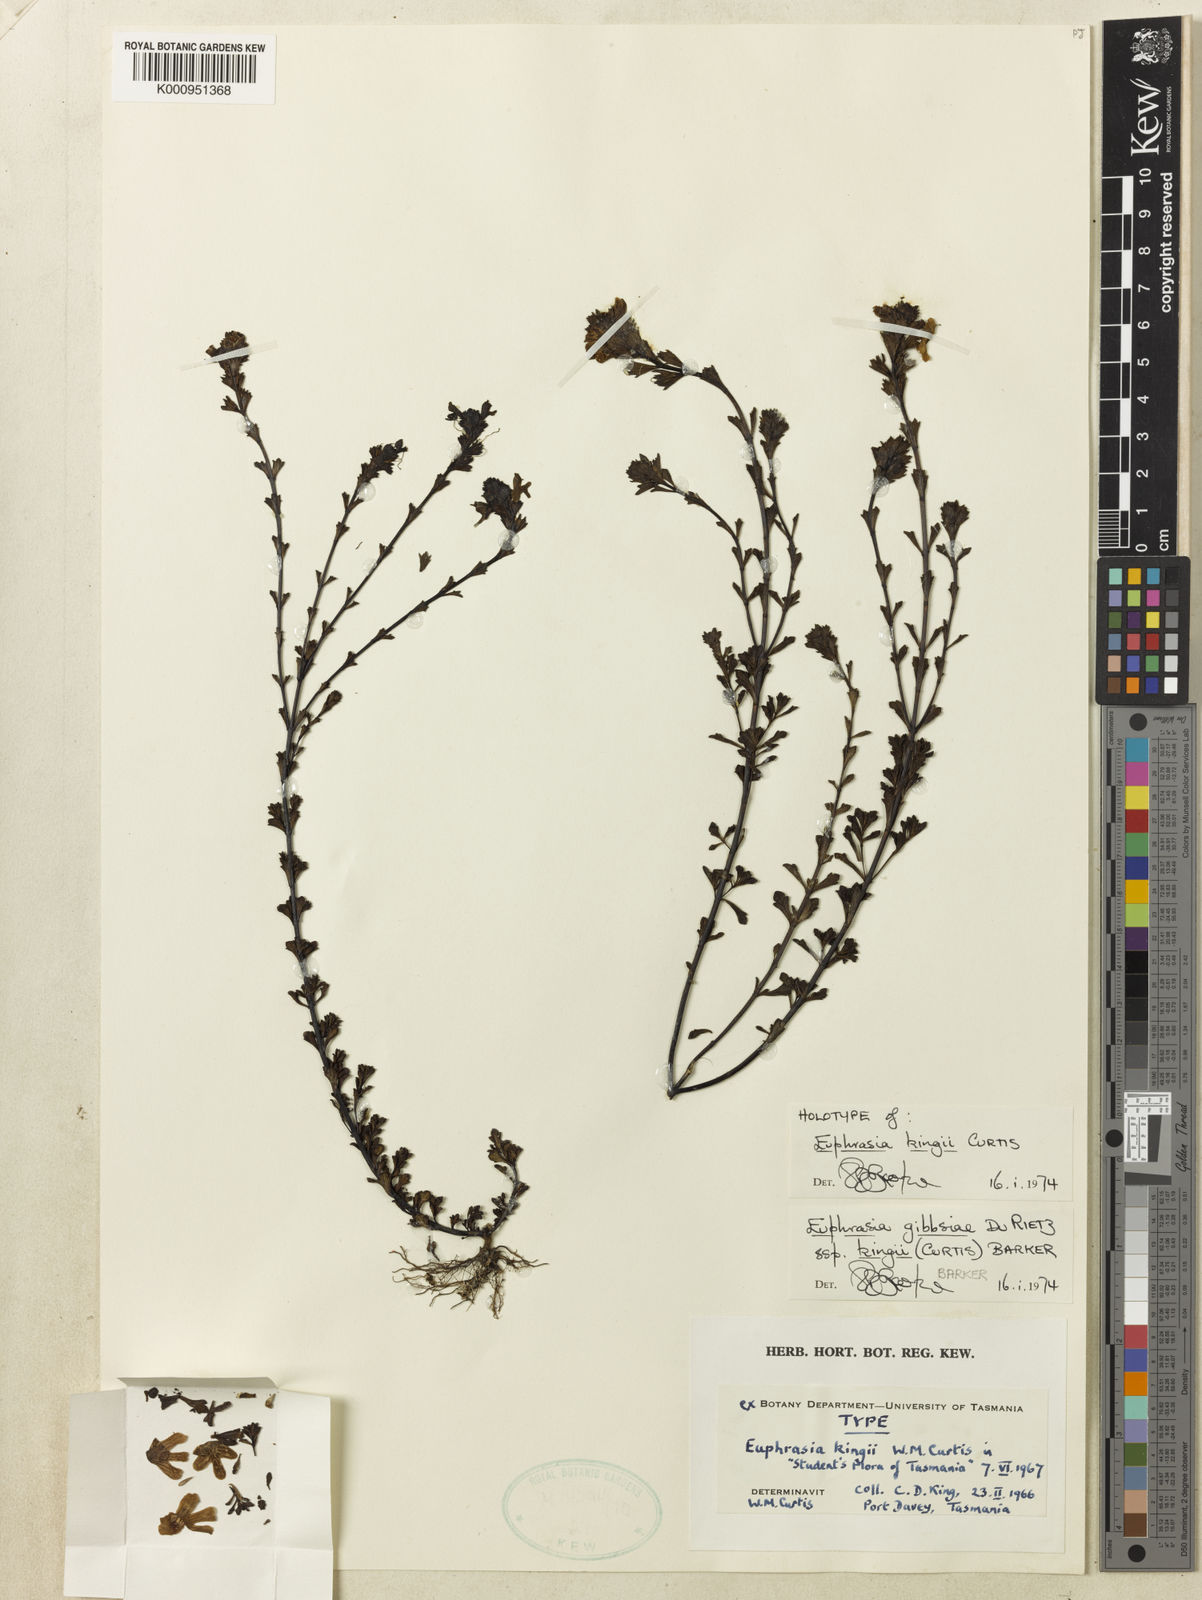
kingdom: Plantae
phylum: Tracheophyta
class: Magnoliopsida
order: Lamiales
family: Orobanchaceae
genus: Euphrasia
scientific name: Euphrasia gibbsiae
